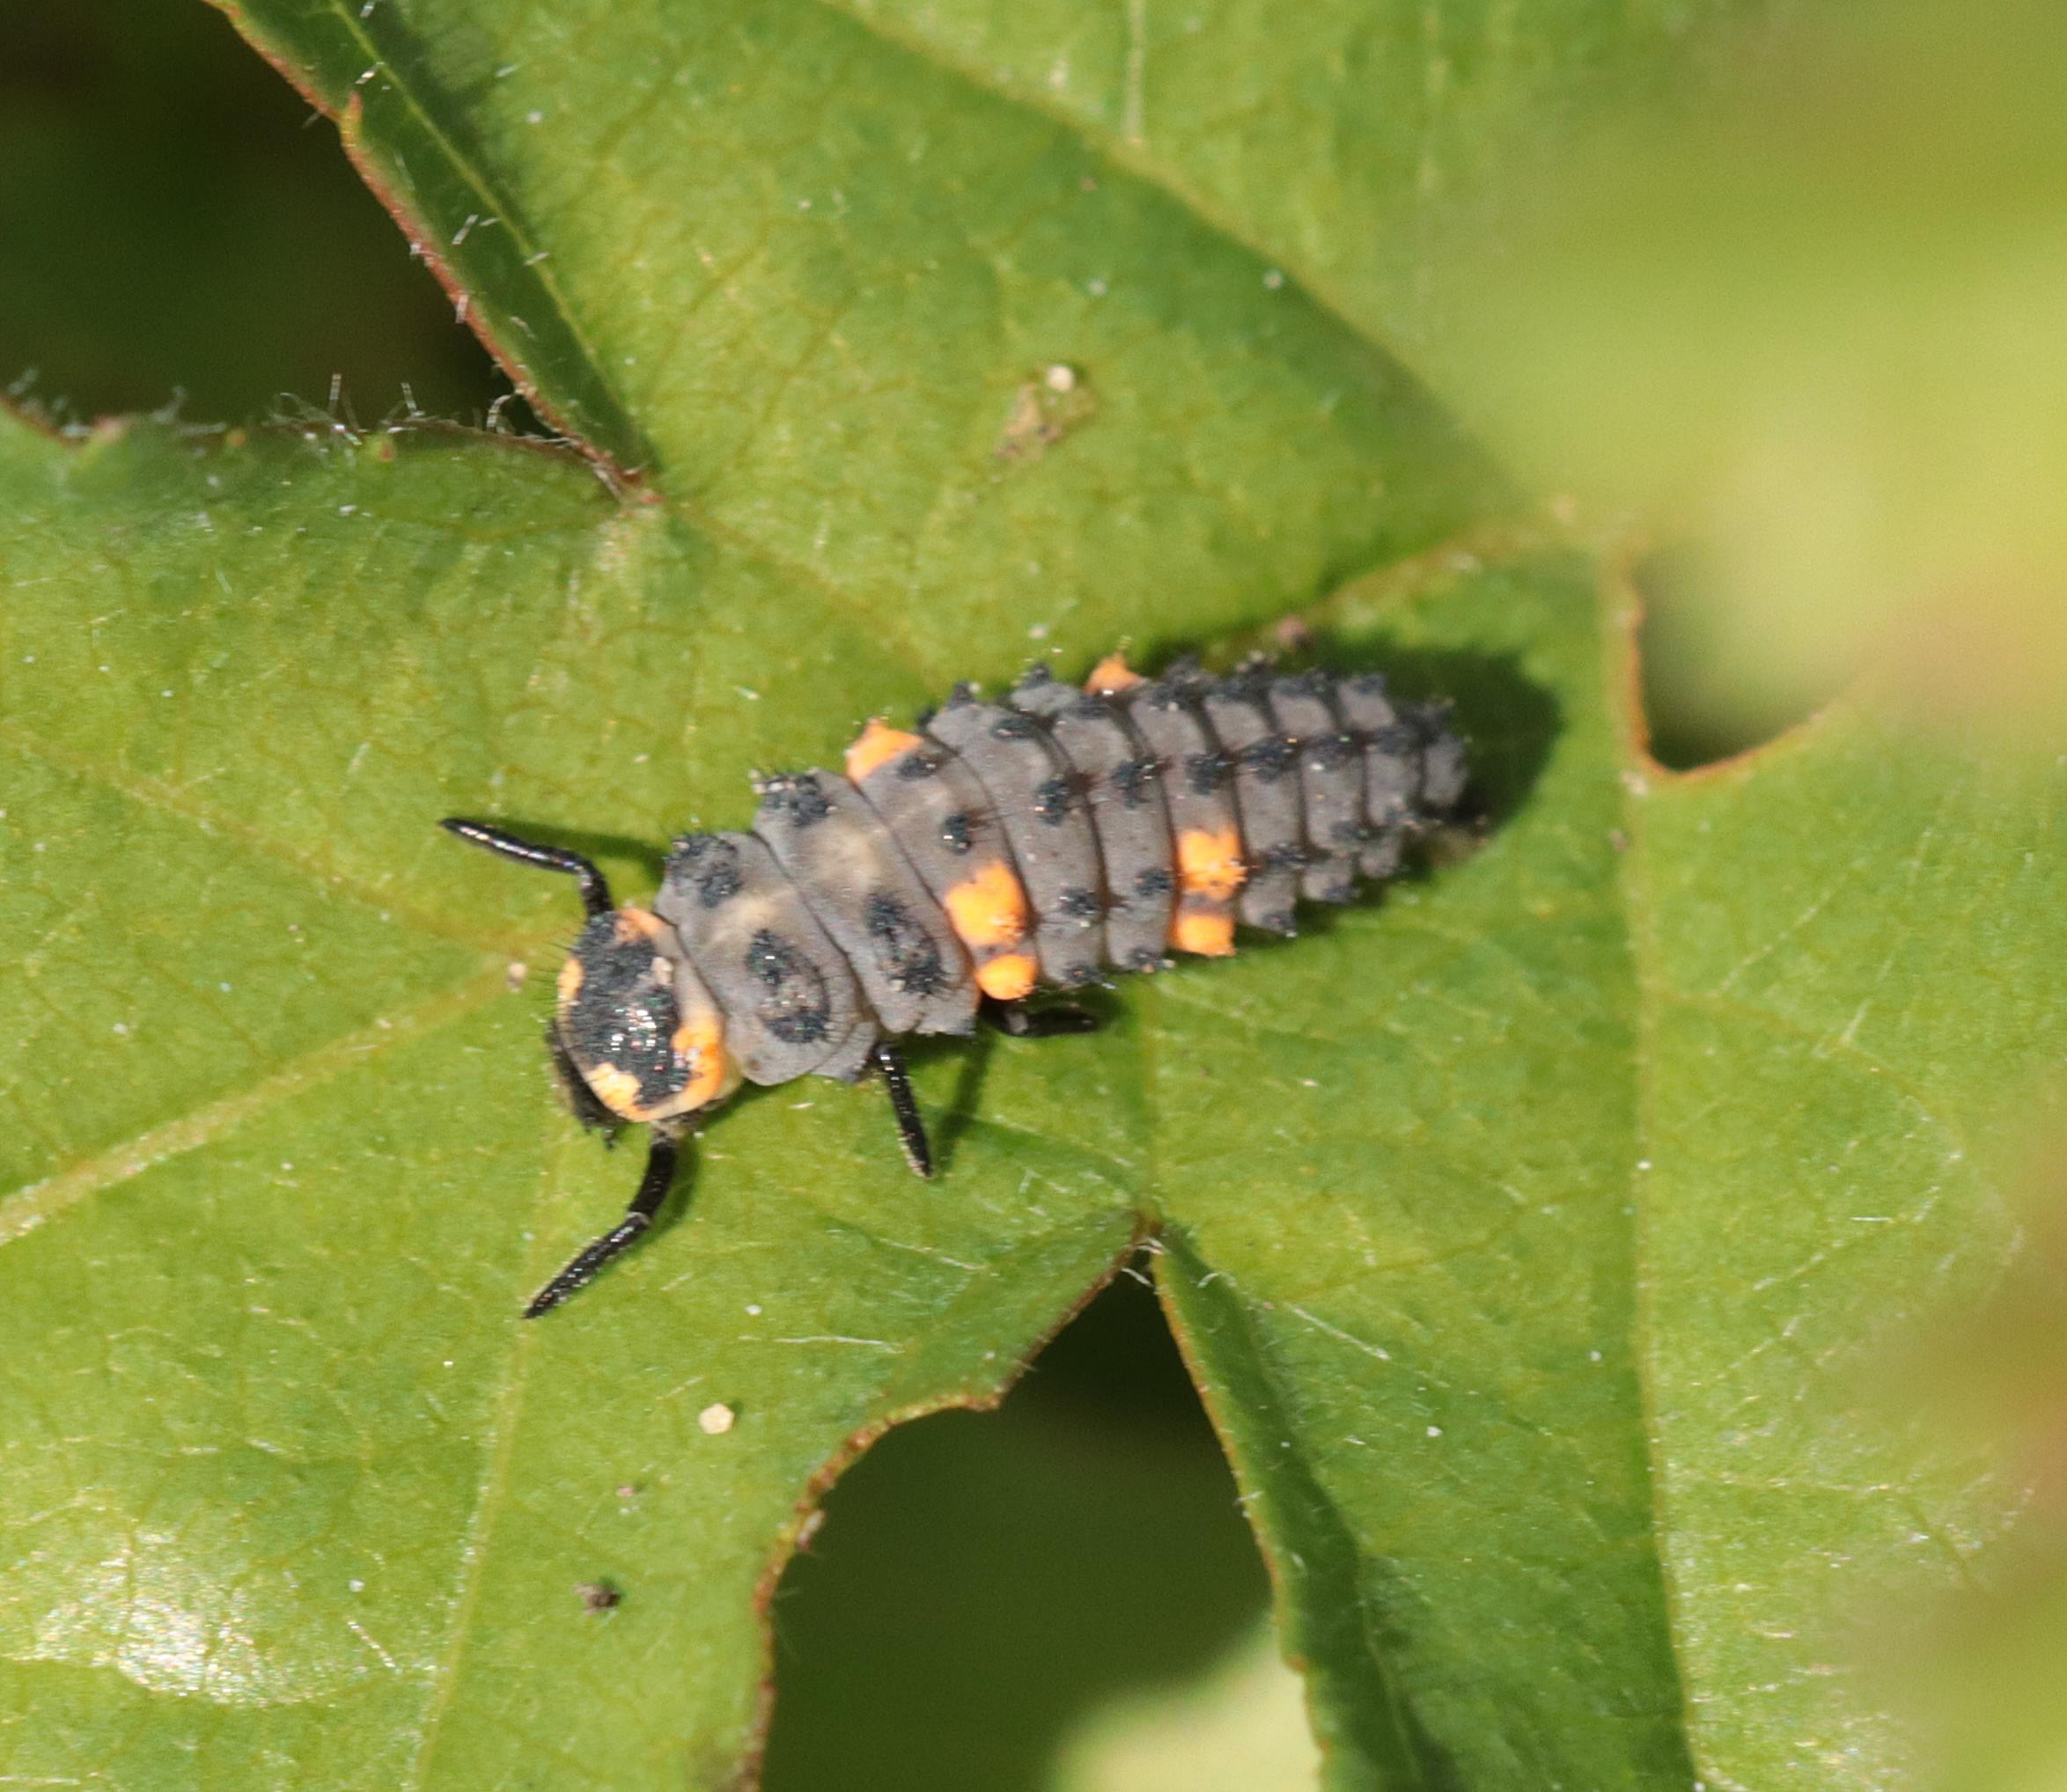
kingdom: Animalia
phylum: Arthropoda
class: Insecta
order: Coleoptera
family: Coccinellidae
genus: Coccinella
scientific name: Coccinella septempunctata
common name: Syvplettet mariehøne
